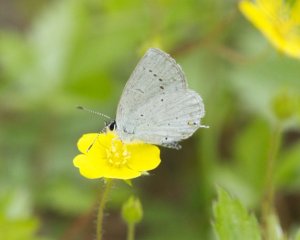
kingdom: Animalia
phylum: Arthropoda
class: Insecta
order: Lepidoptera
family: Lycaenidae
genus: Elkalyce
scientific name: Elkalyce amyntula
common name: Western Tailed-Blue
